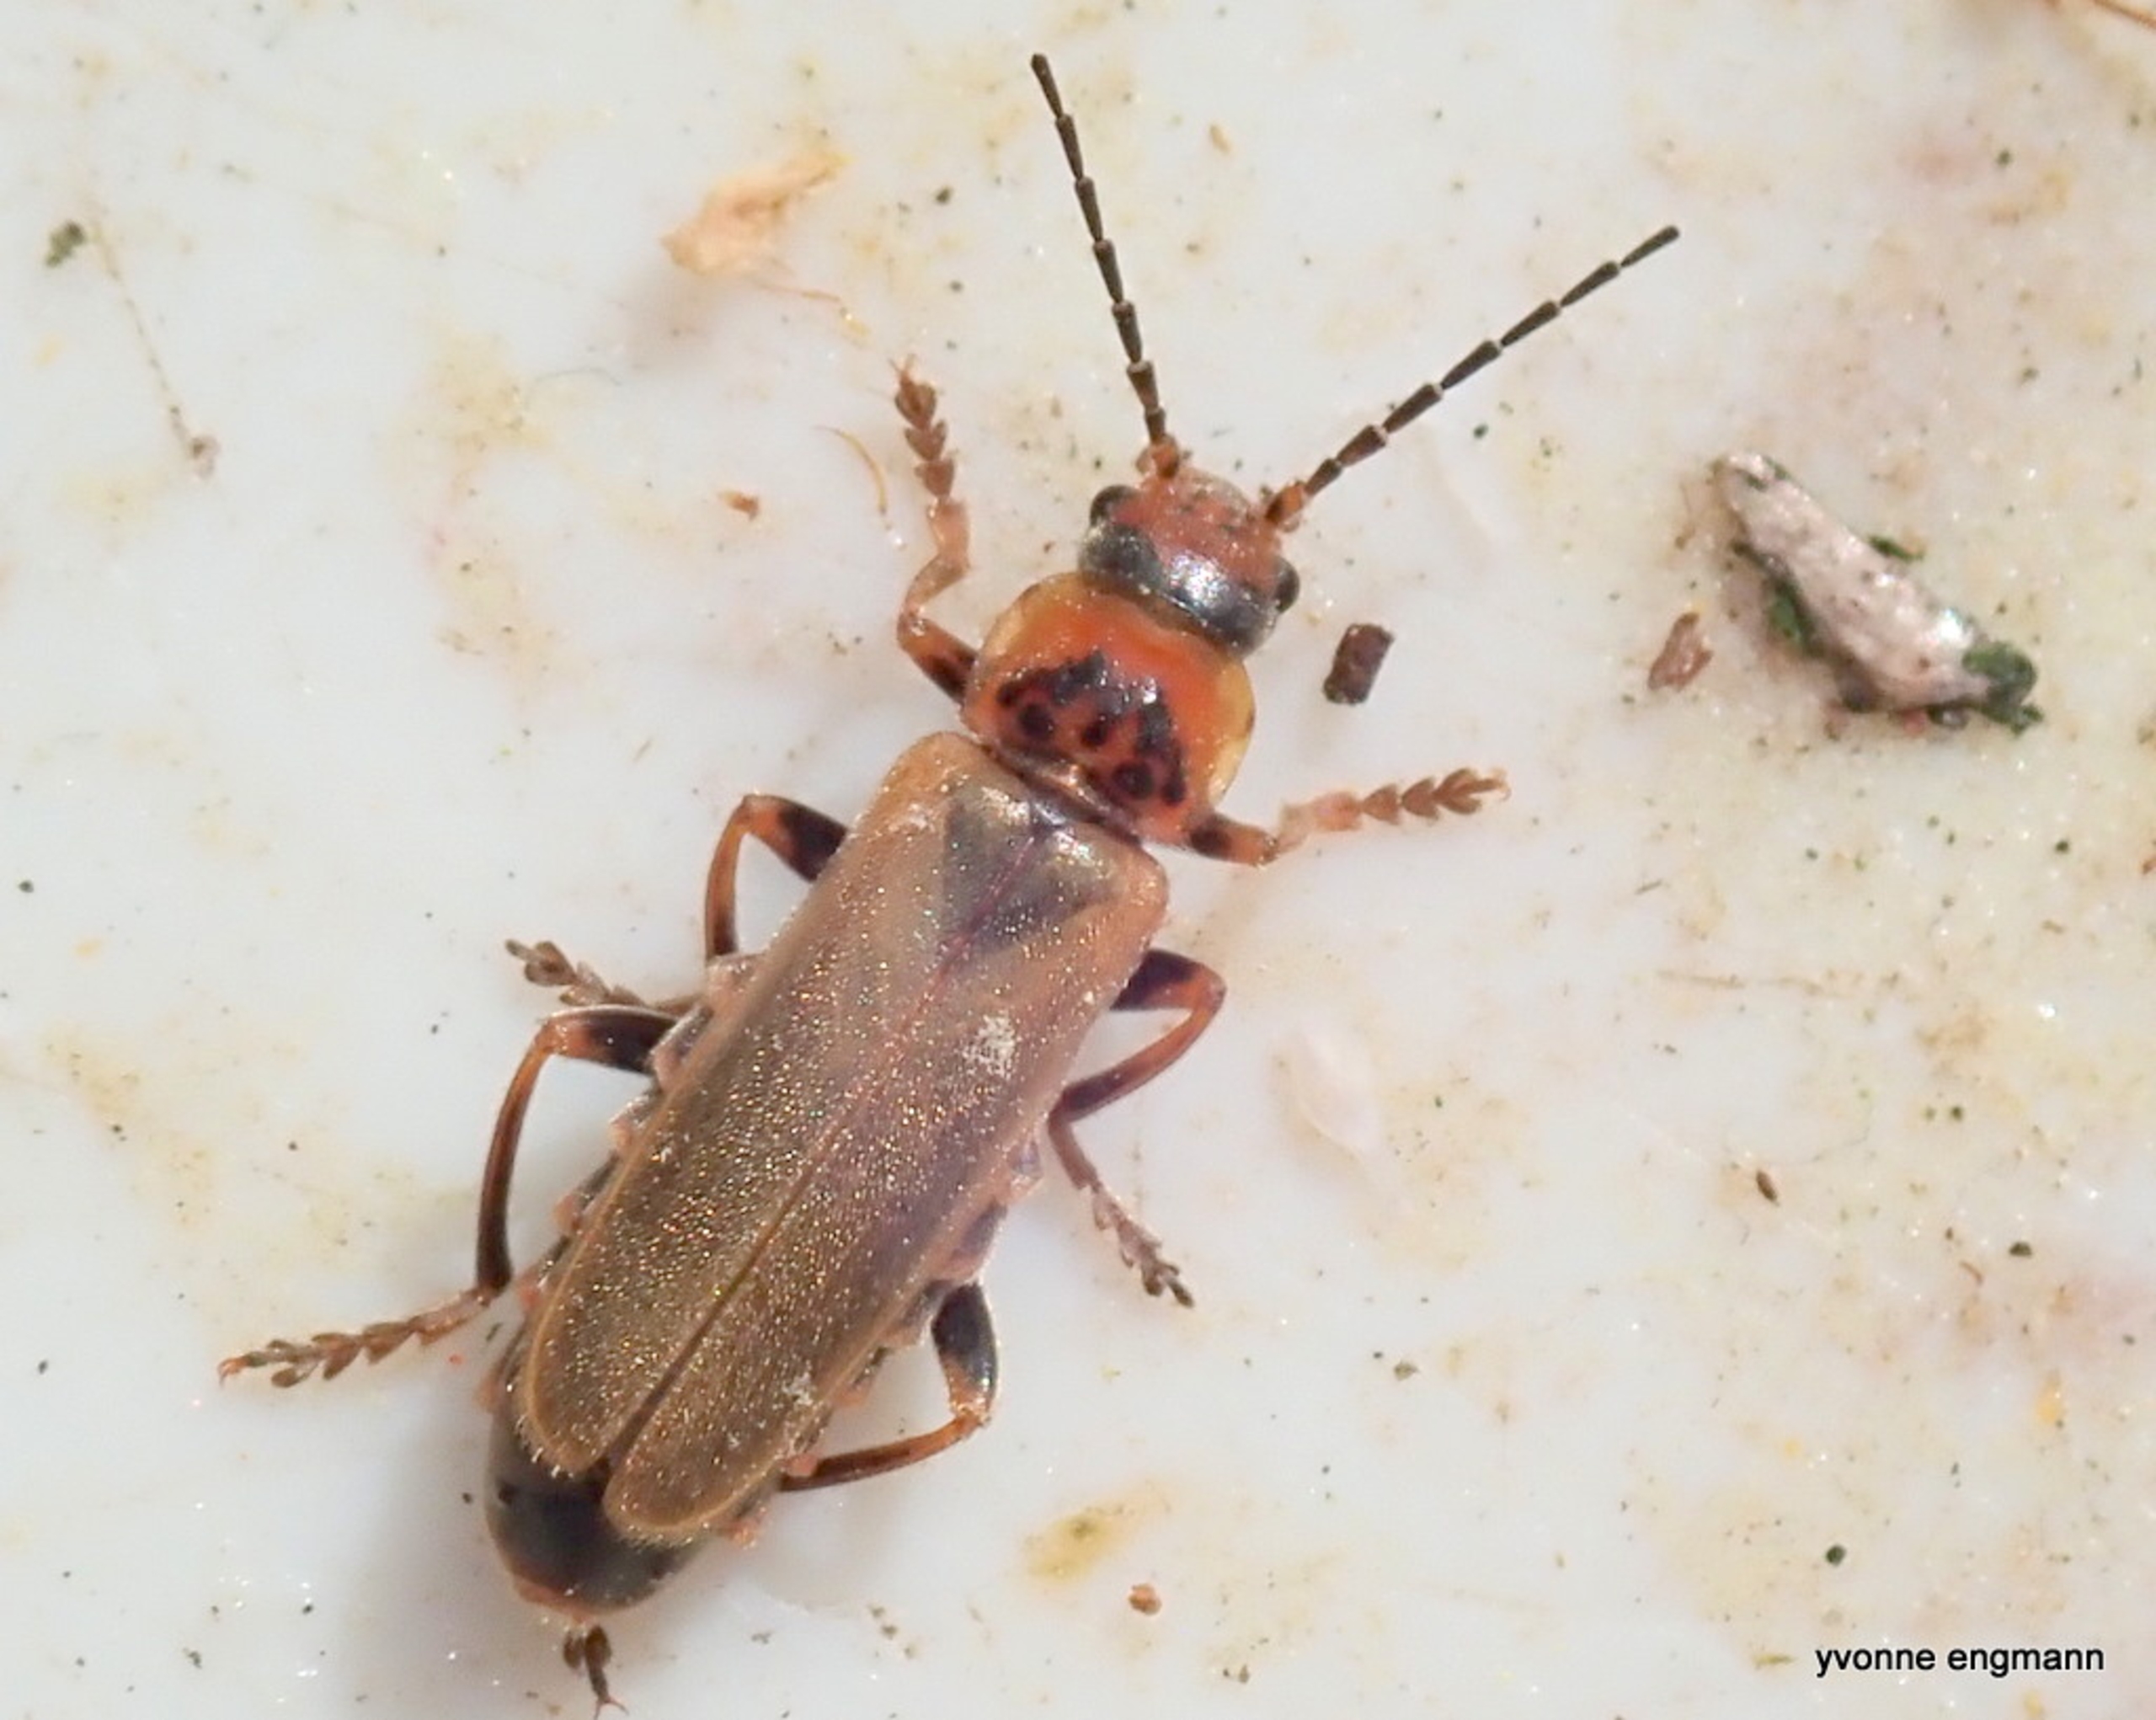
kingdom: Animalia
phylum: Arthropoda
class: Insecta
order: Coleoptera
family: Cantharidae
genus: Cantharis
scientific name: Cantharis figurata
